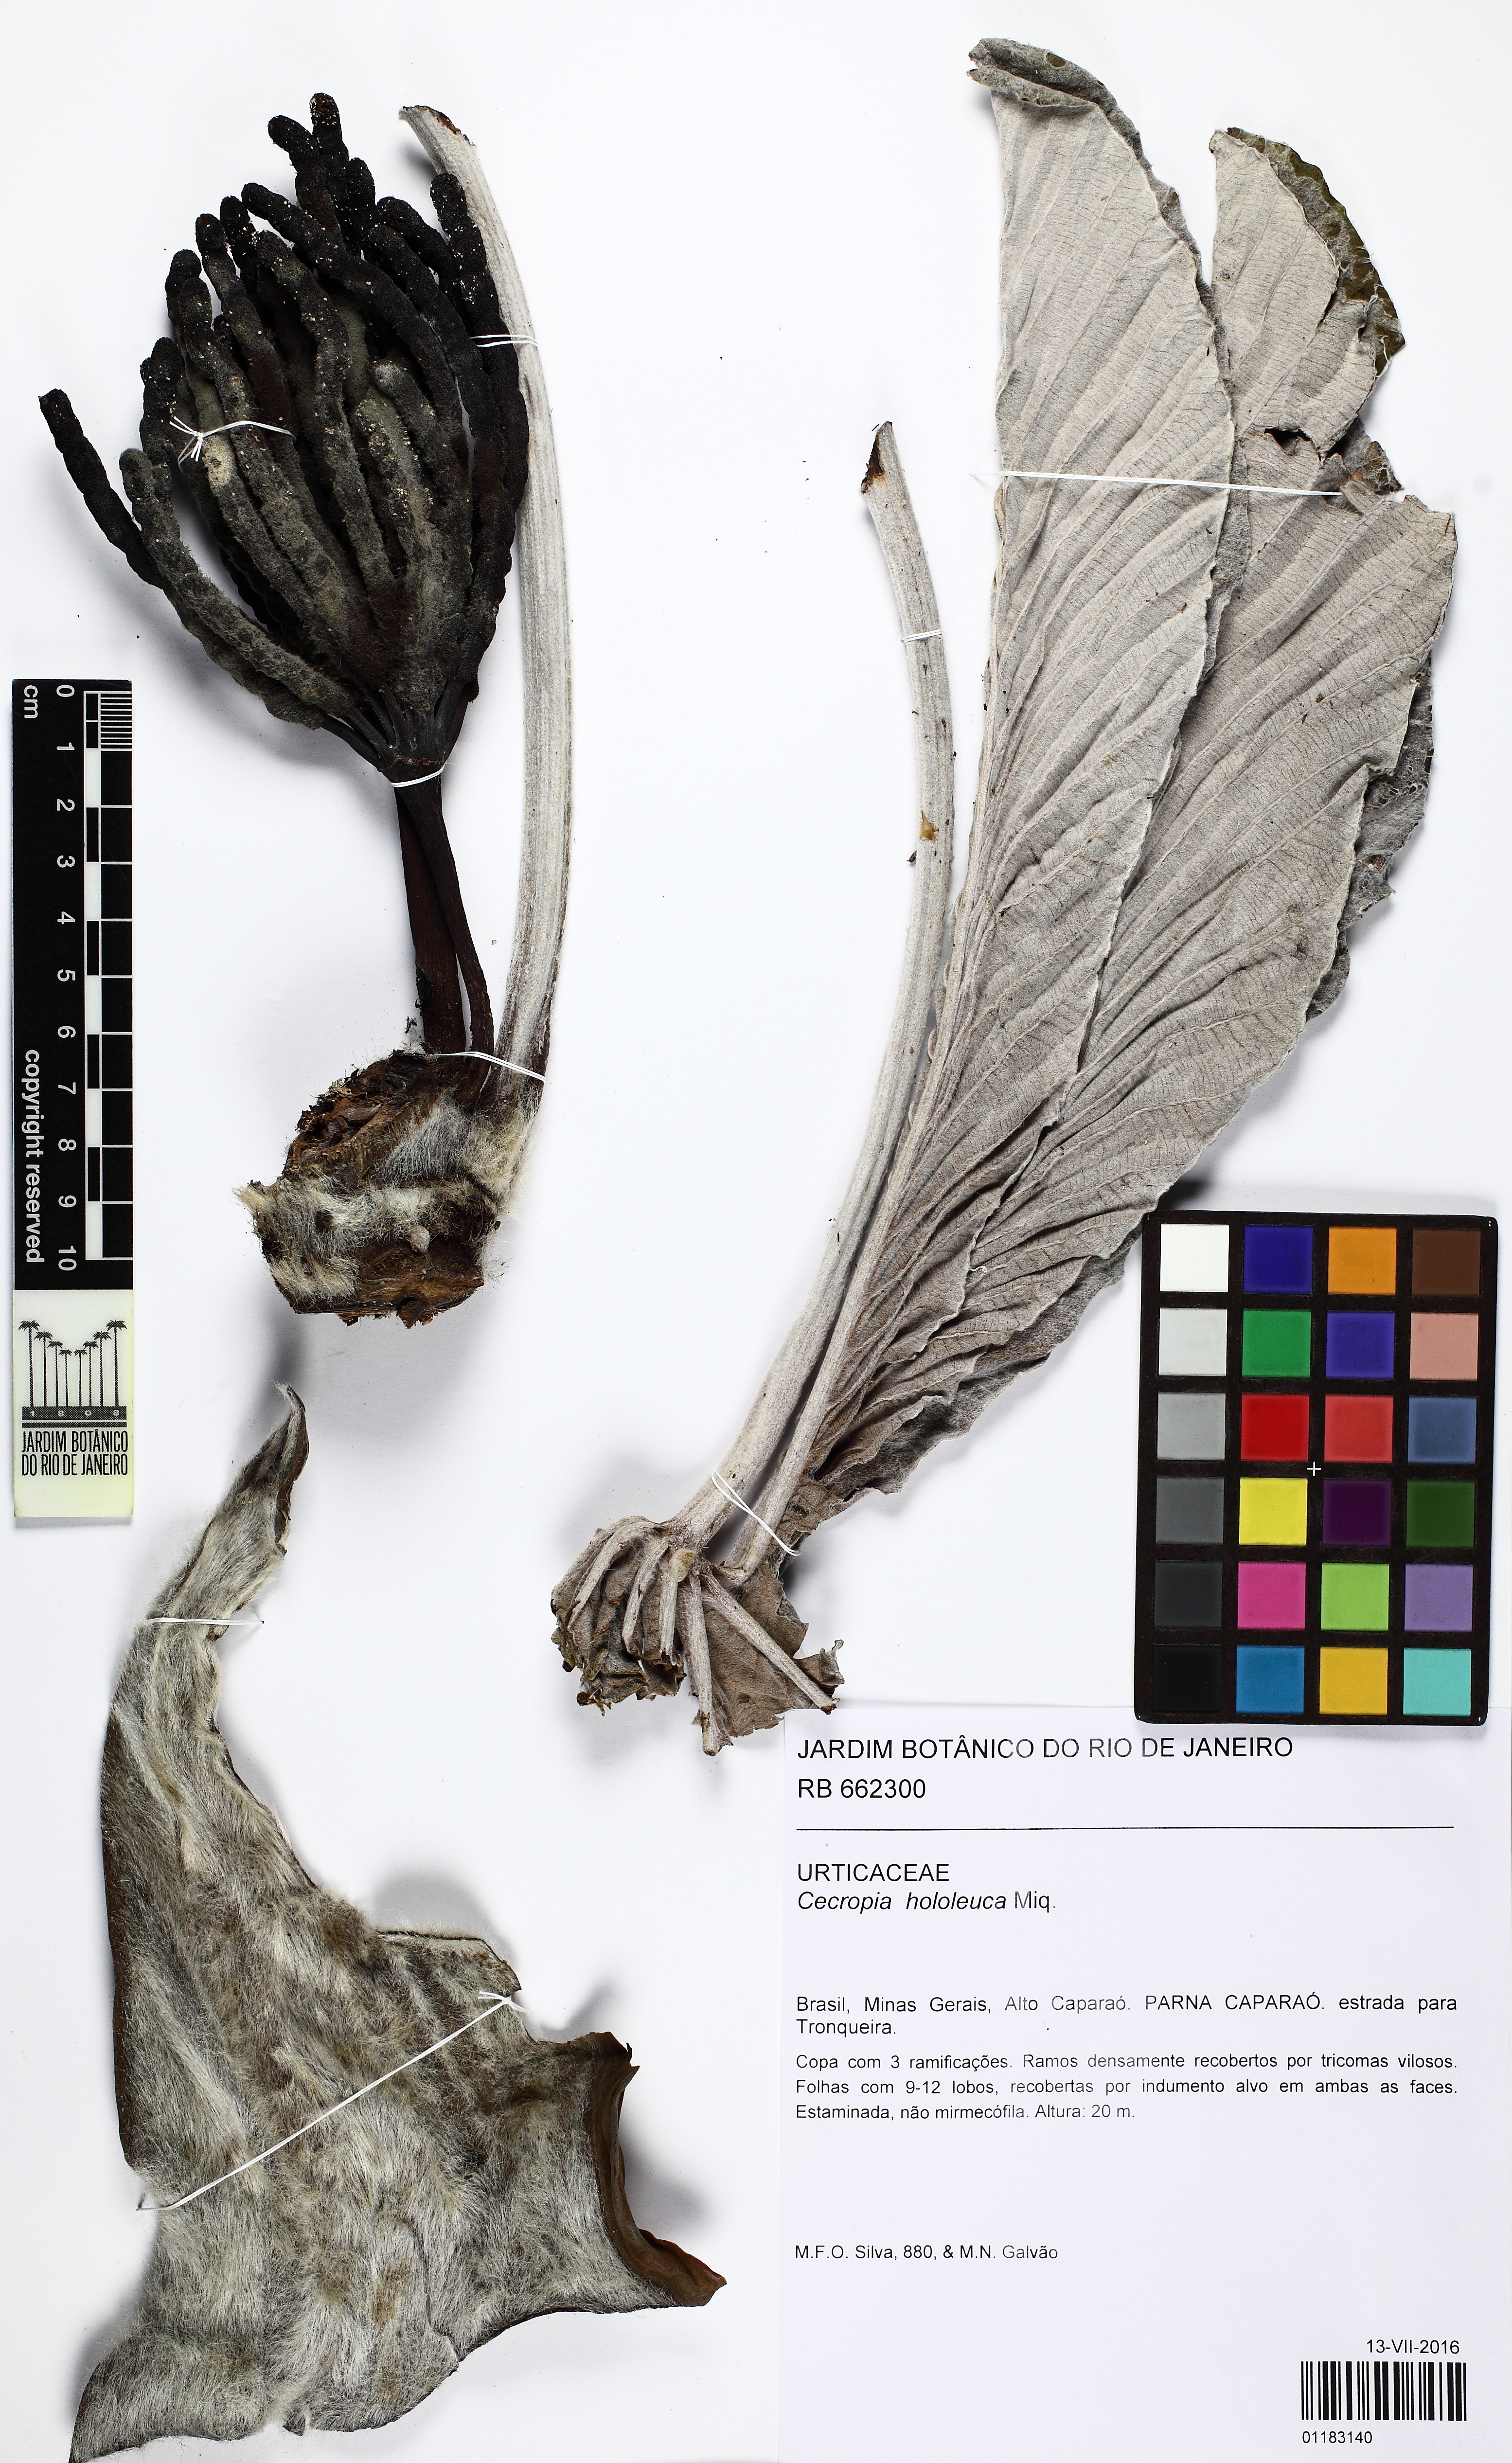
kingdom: Plantae
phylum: Tracheophyta
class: Magnoliopsida
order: Rosales
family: Urticaceae
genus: Cecropia
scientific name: Cecropia hololeuca
